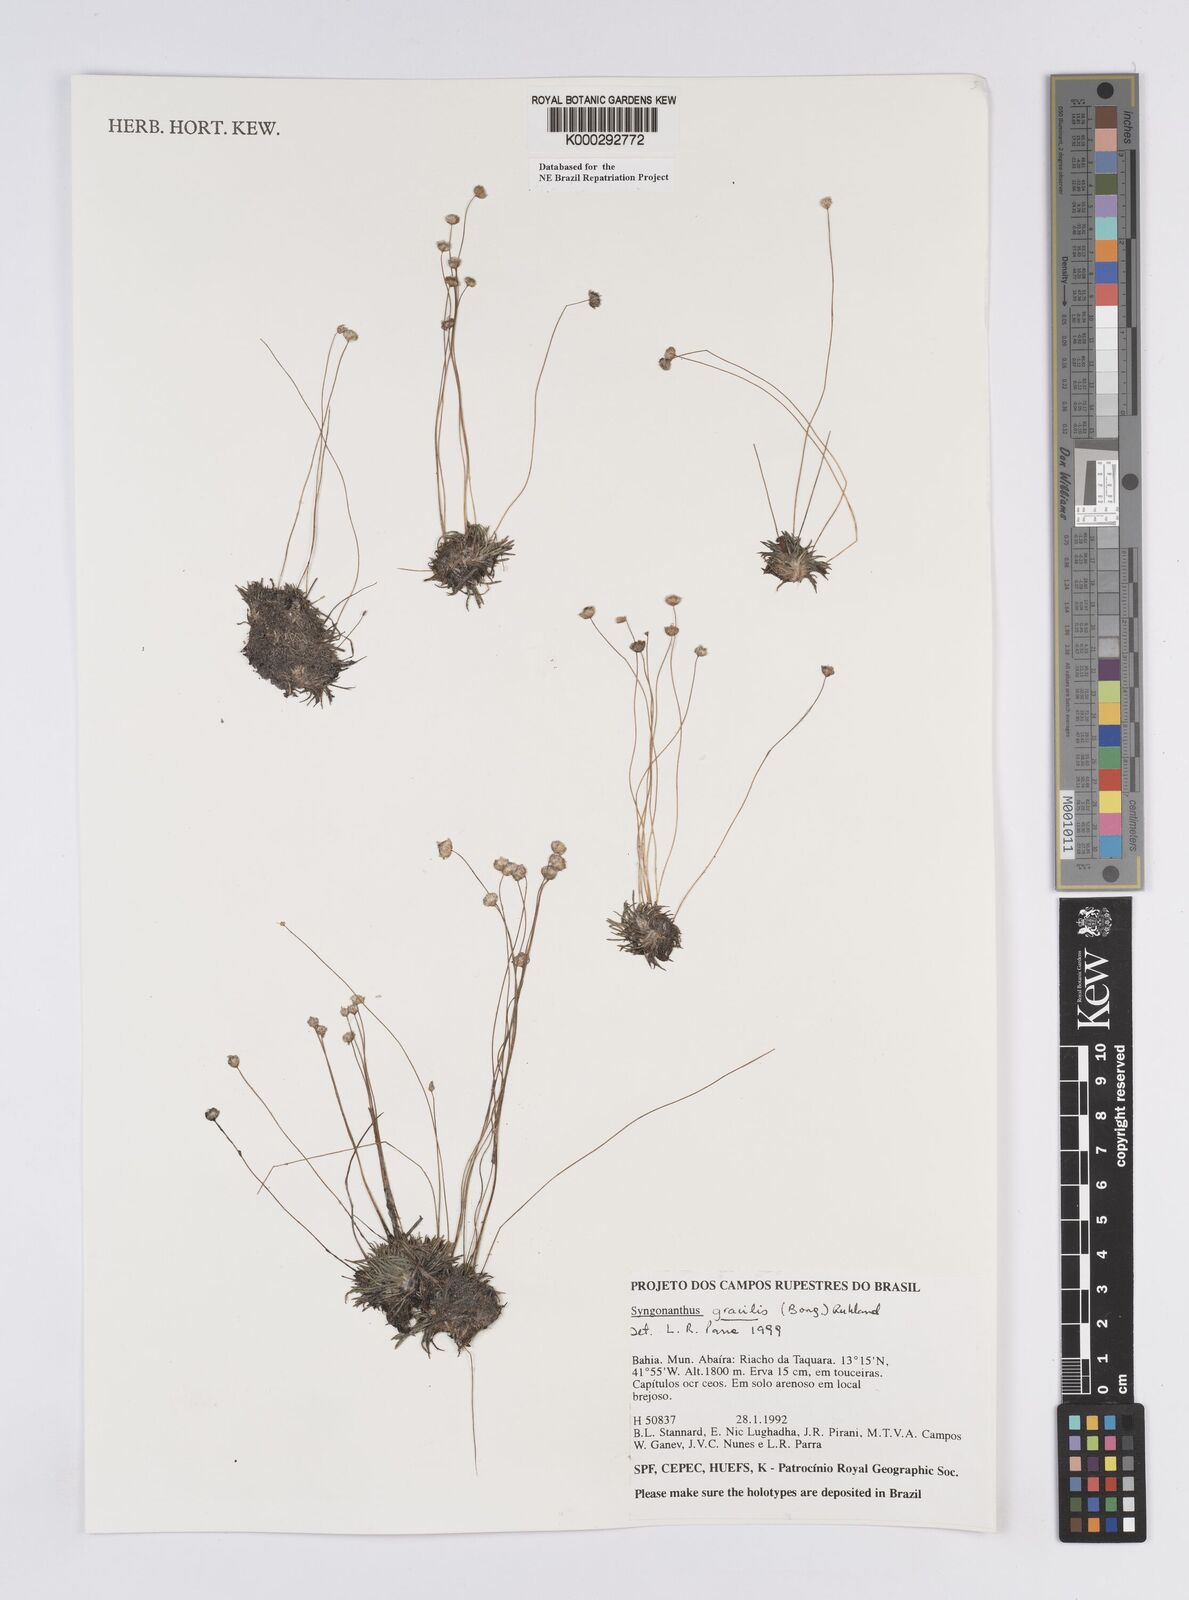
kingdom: Plantae
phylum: Tracheophyta
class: Liliopsida
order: Poales
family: Eriocaulaceae
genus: Syngonanthus
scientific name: Syngonanthus gracilis
